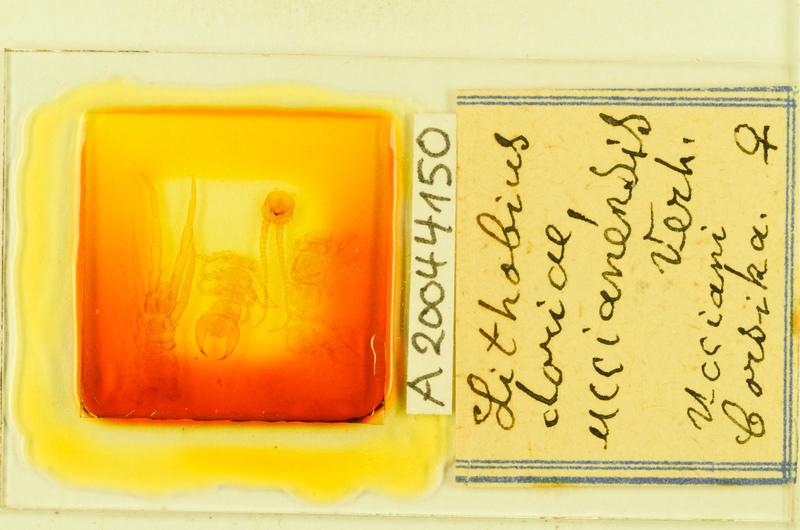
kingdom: Animalia
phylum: Arthropoda
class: Chilopoda
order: Lithobiomorpha
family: Lithobiidae
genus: Lithobius
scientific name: Lithobius pilicornis
